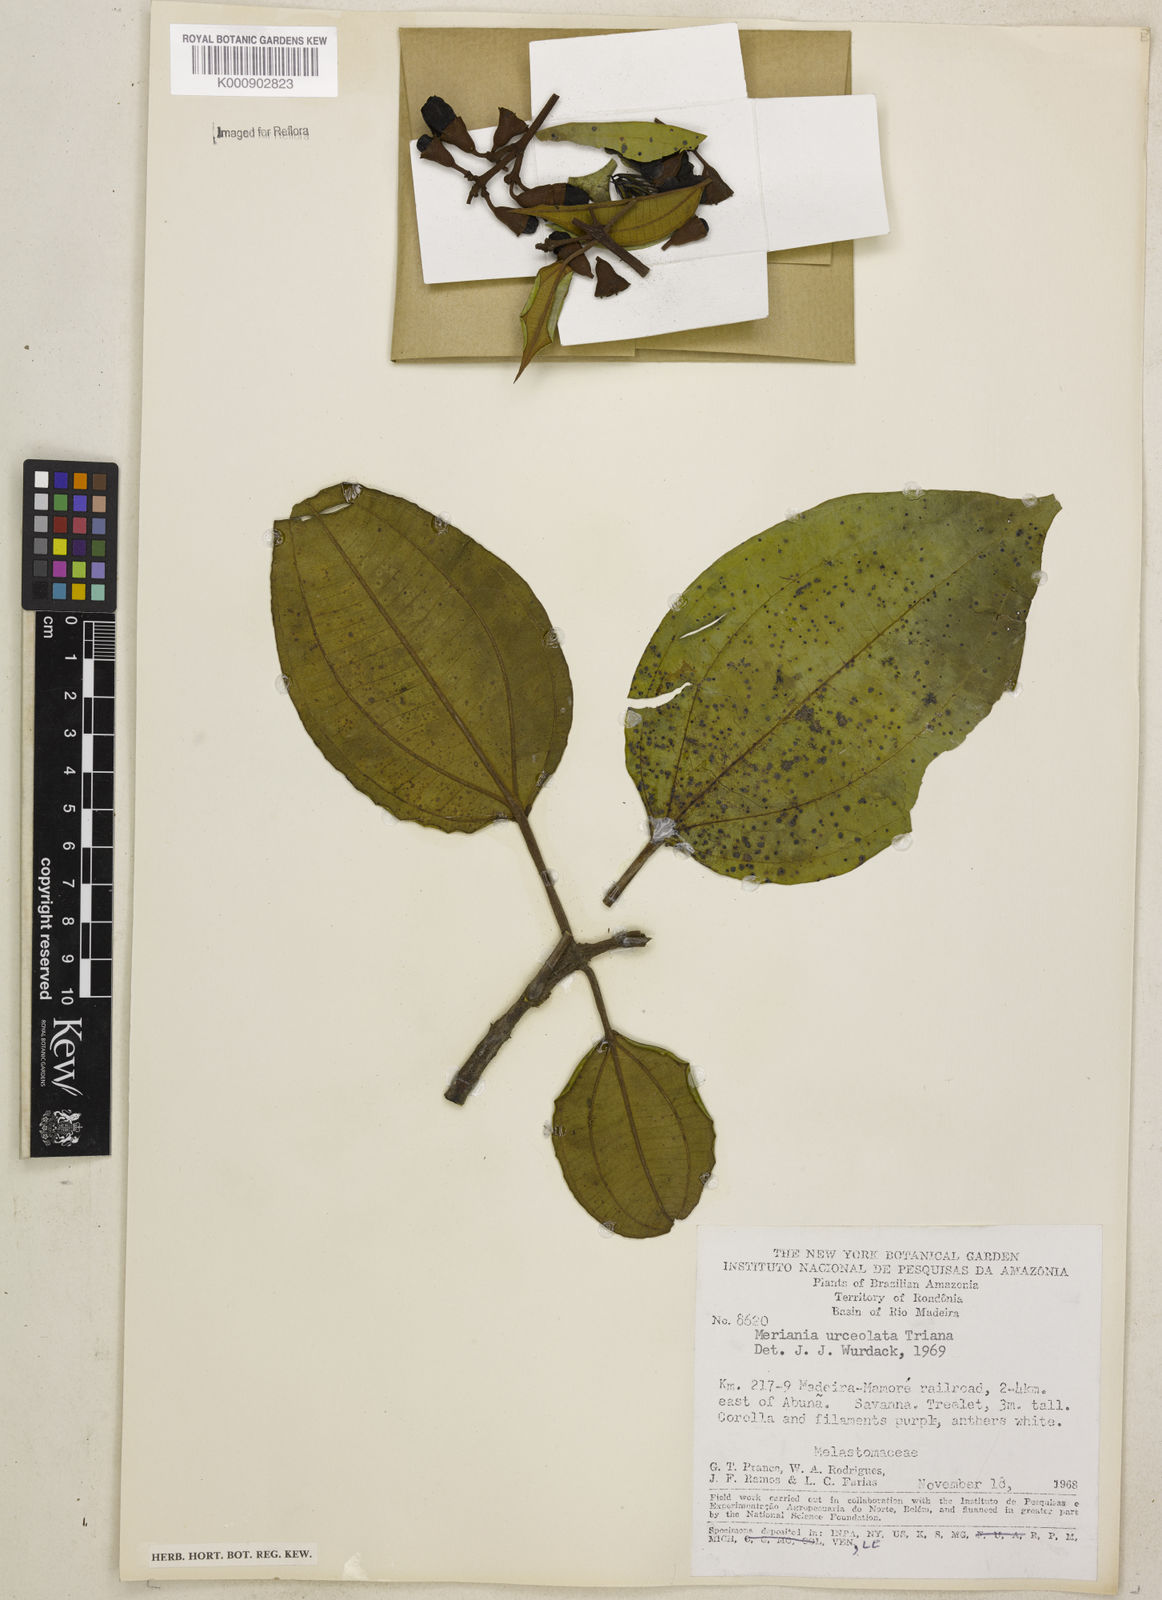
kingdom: Plantae
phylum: Tracheophyta
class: Magnoliopsida
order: Myrtales
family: Melastomataceae
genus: Meriania
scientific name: Meriania urceolata
